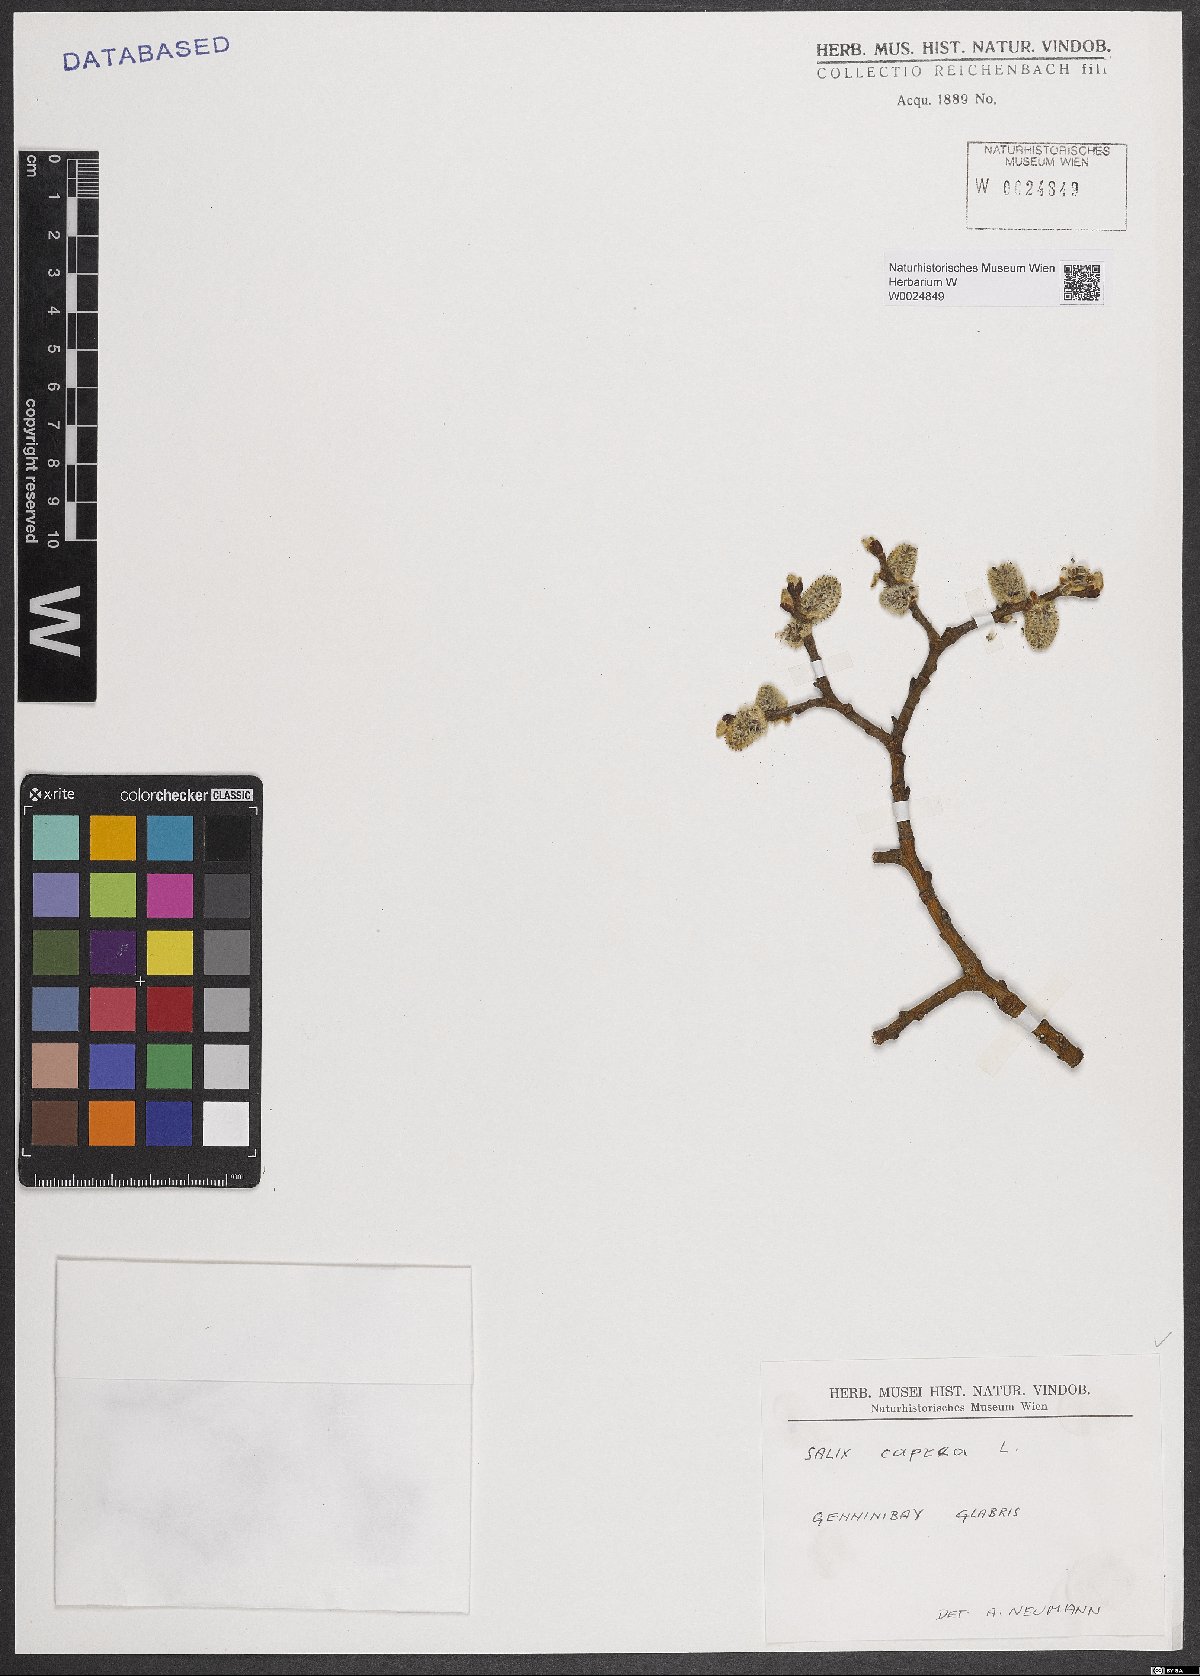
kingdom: Plantae
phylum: Tracheophyta
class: Magnoliopsida
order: Malpighiales
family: Salicaceae
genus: Salix
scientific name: Salix caprea
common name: Goat willow
